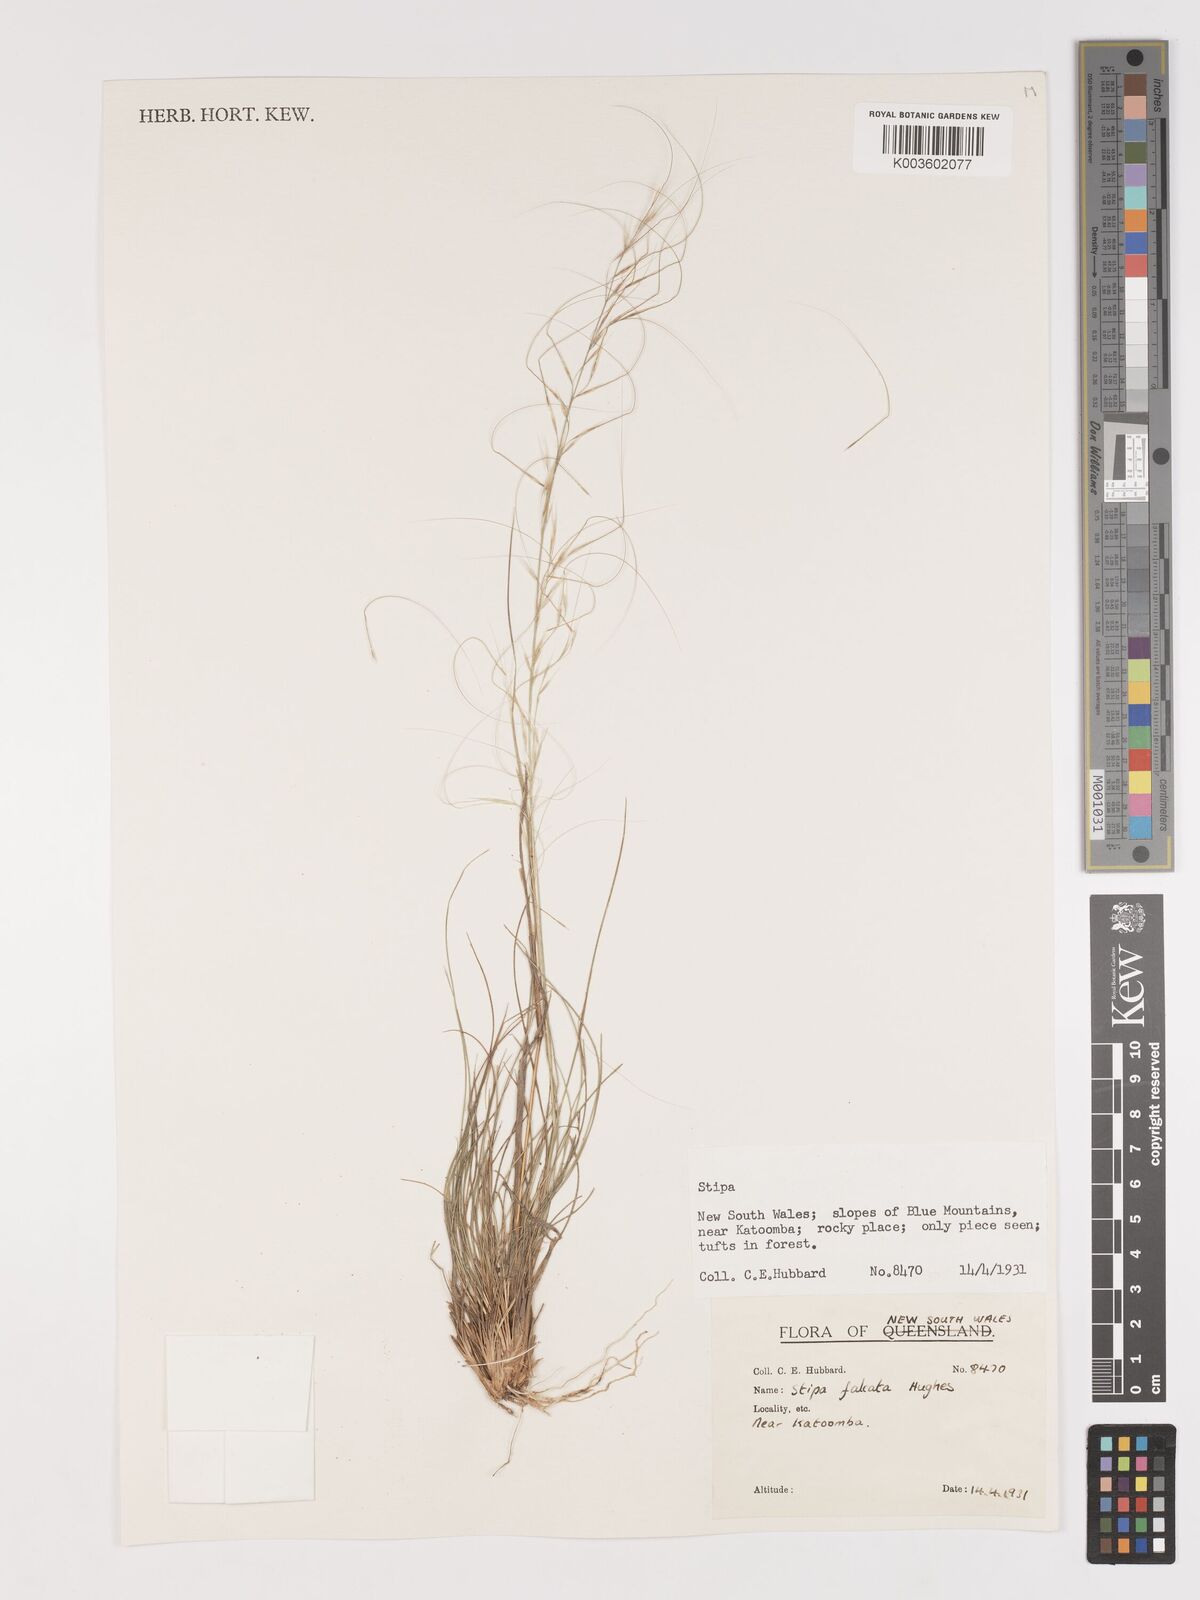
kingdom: Plantae
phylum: Tracheophyta
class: Liliopsida
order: Poales
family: Poaceae
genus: Austrostipa
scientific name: Austrostipa scabra
